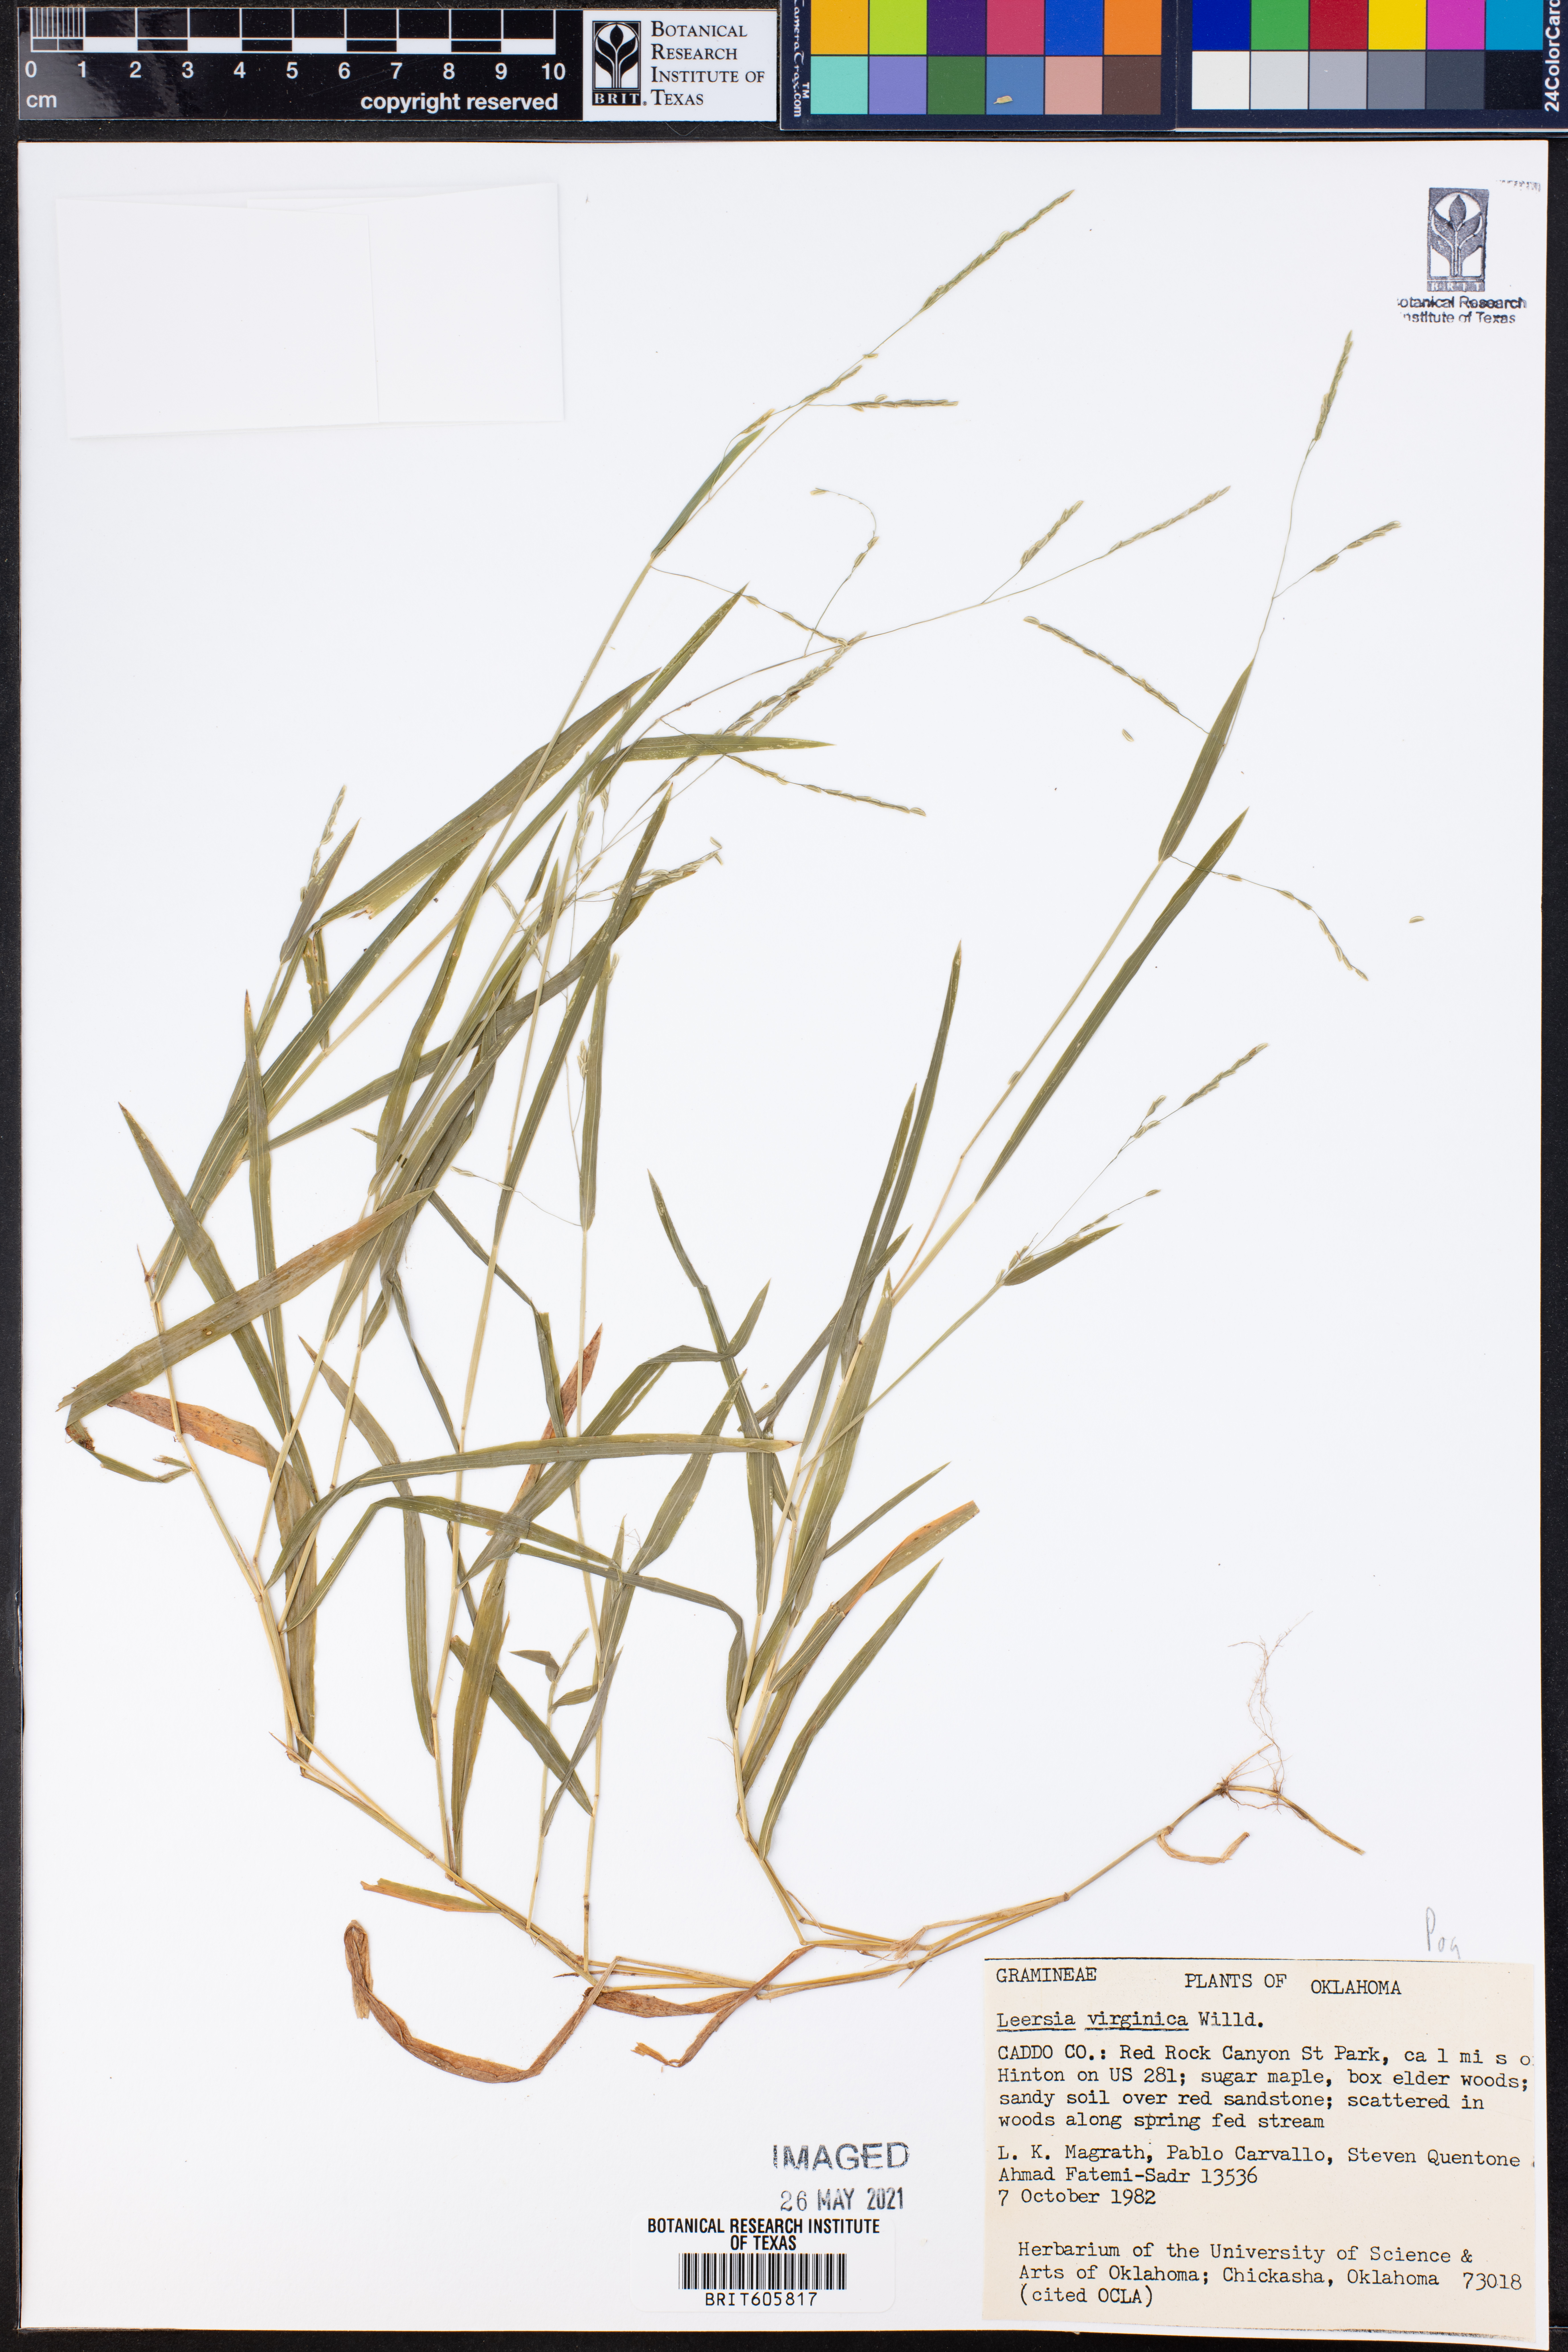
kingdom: Plantae
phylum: Tracheophyta
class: Liliopsida
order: Poales
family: Poaceae
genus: Leersia
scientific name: Leersia virginica
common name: White cutgrass
